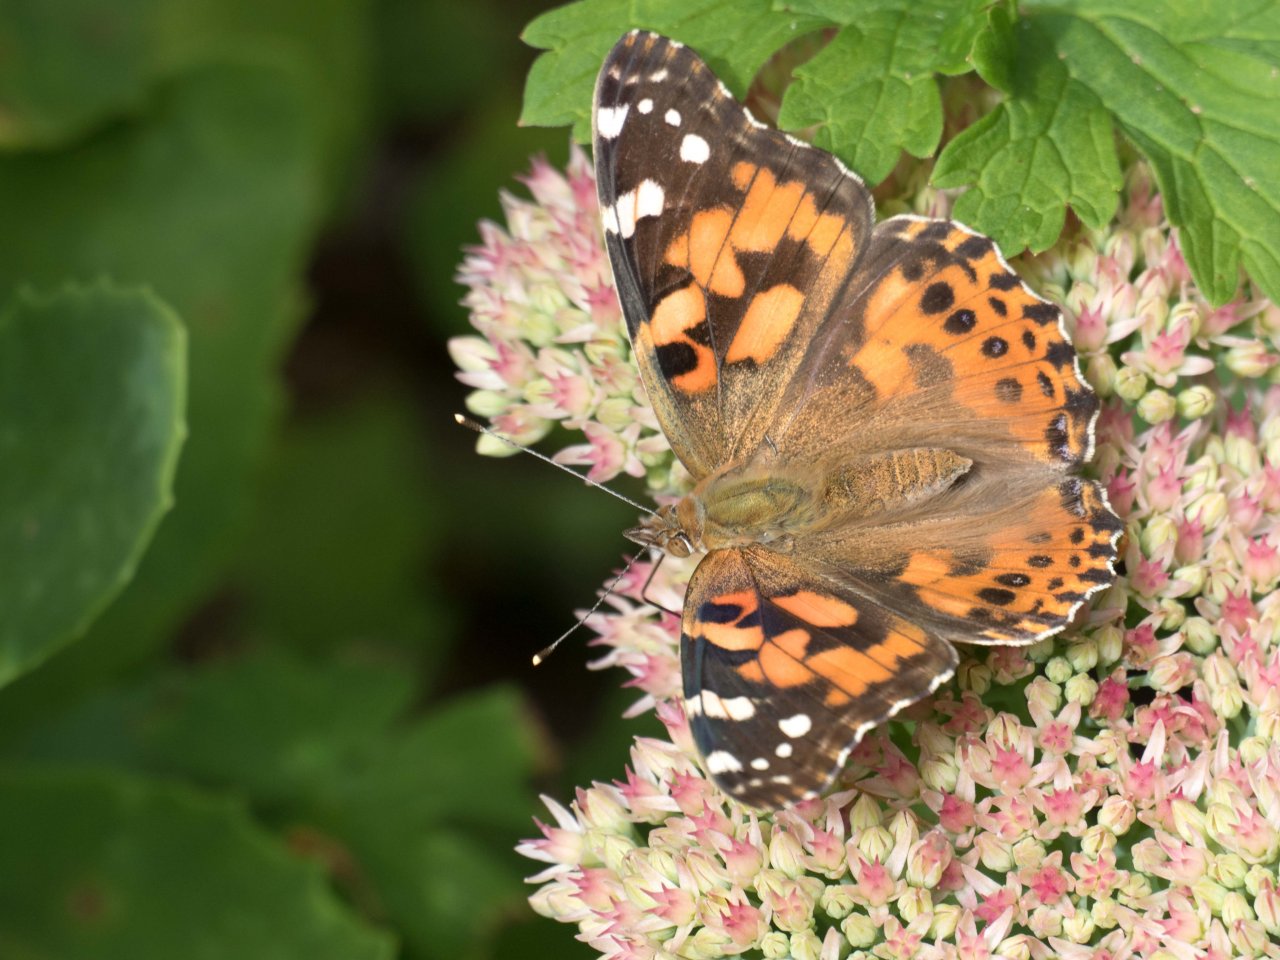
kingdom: Animalia
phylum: Arthropoda
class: Insecta
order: Lepidoptera
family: Nymphalidae
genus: Vanessa
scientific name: Vanessa cardui
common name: Painted Lady
